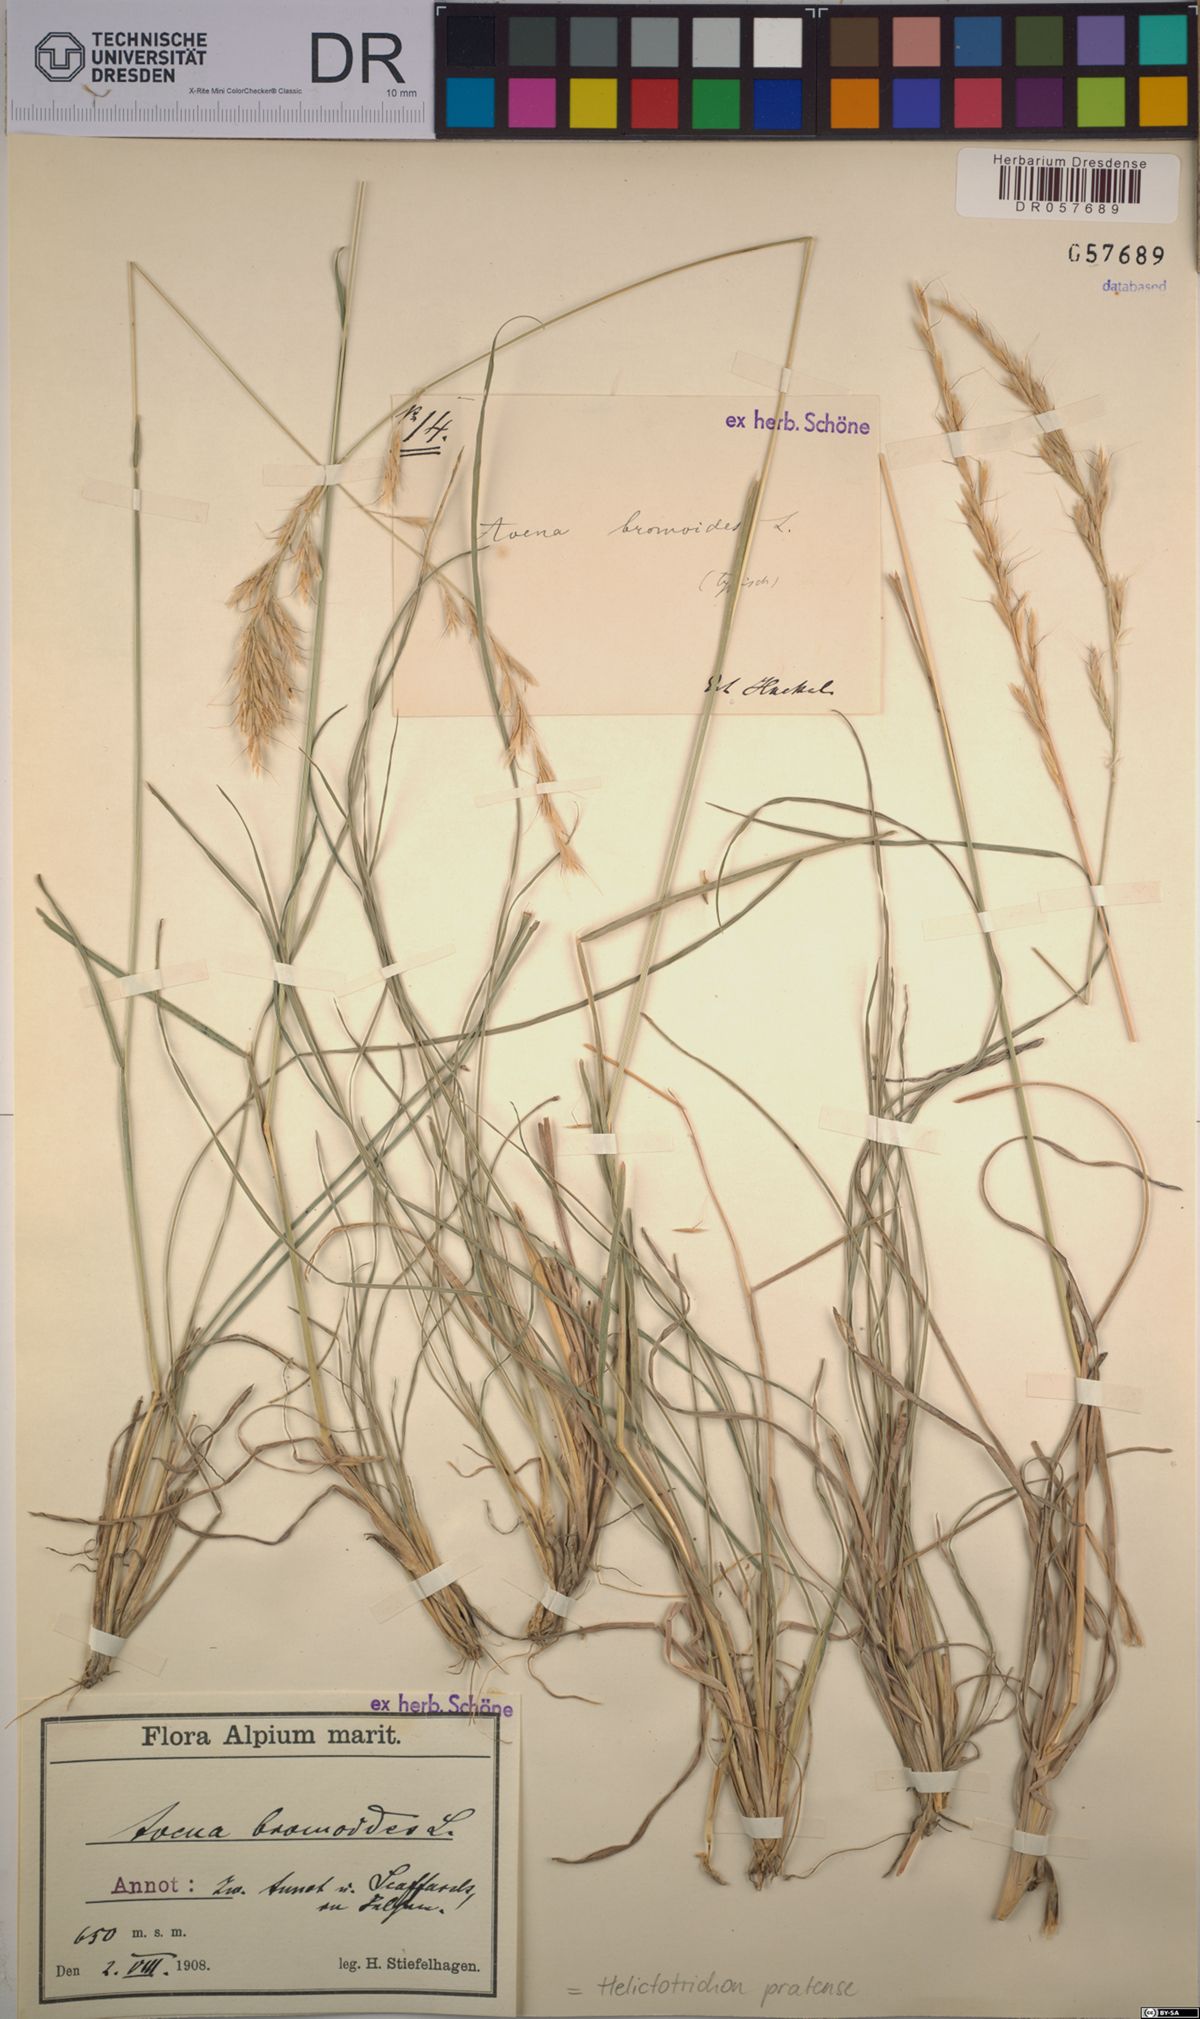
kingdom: Plantae
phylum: Tracheophyta
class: Liliopsida
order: Poales
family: Poaceae
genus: Helictochloa
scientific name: Helictochloa pratensis
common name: Meadow oat grass
